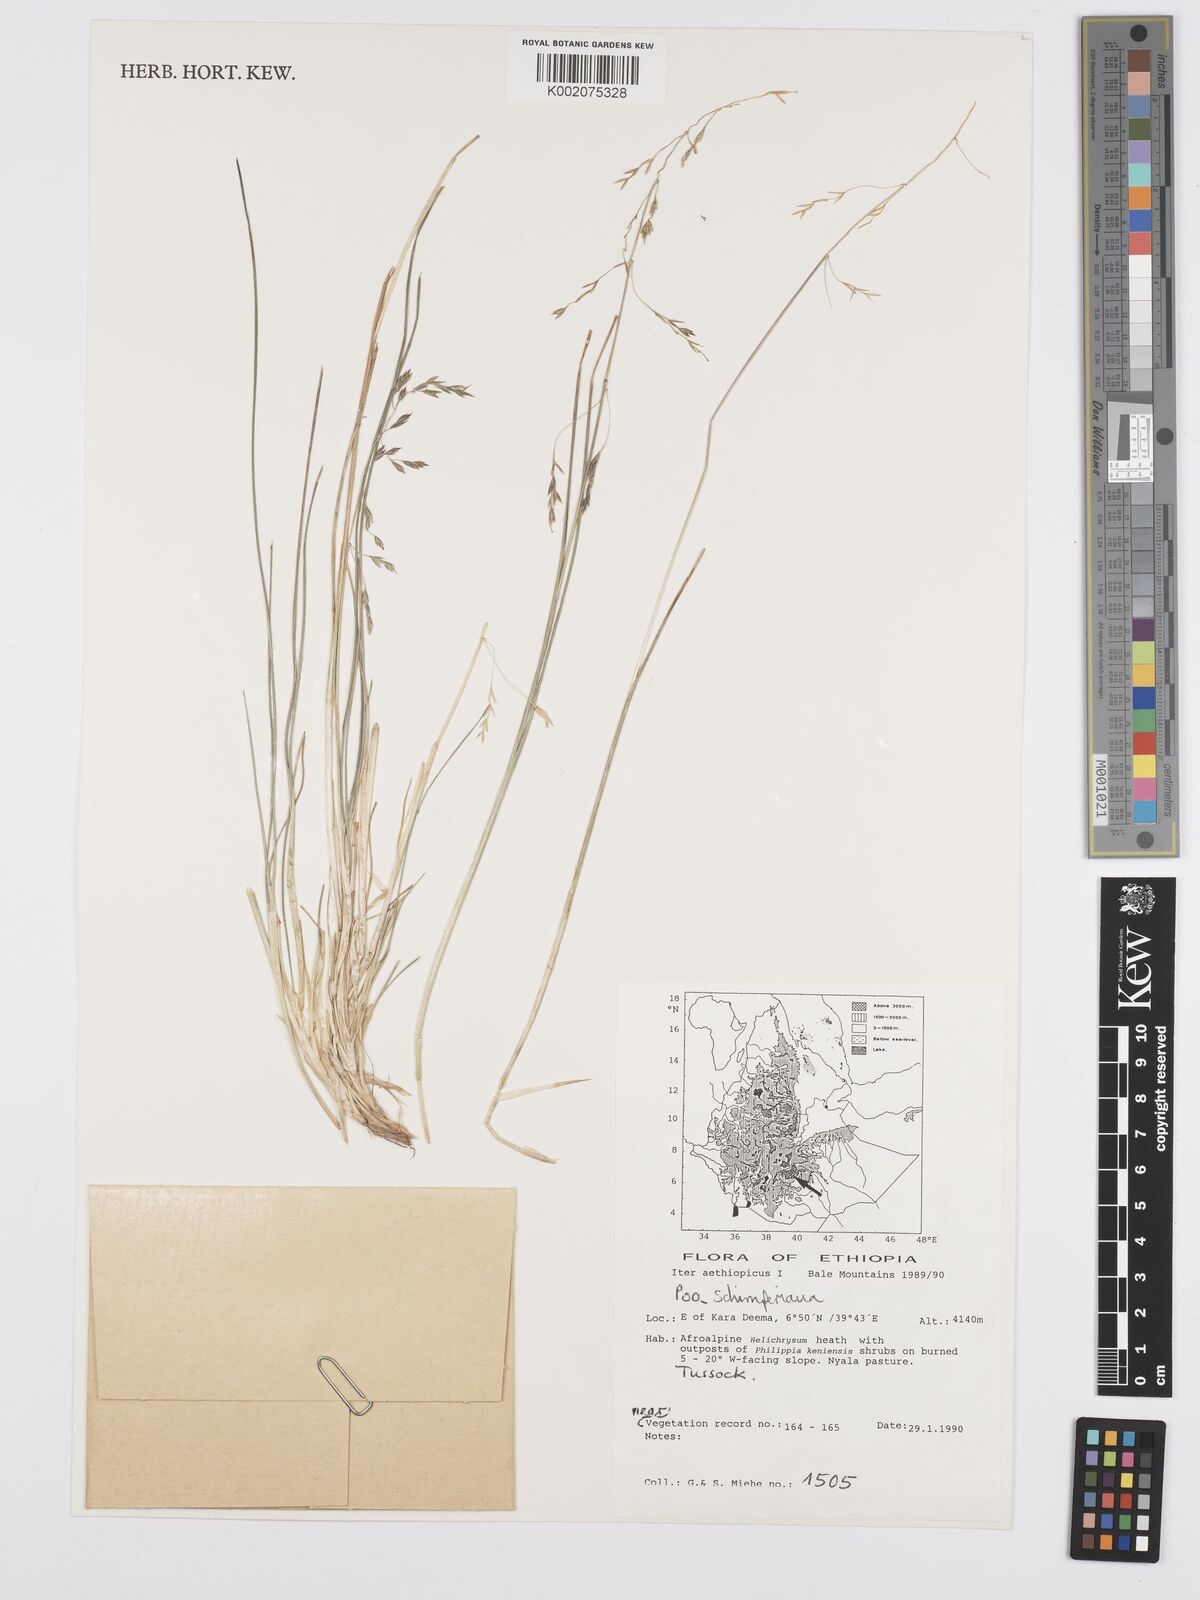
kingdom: Plantae
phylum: Tracheophyta
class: Liliopsida
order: Poales
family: Poaceae
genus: Poa
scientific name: Poa schimperiana
